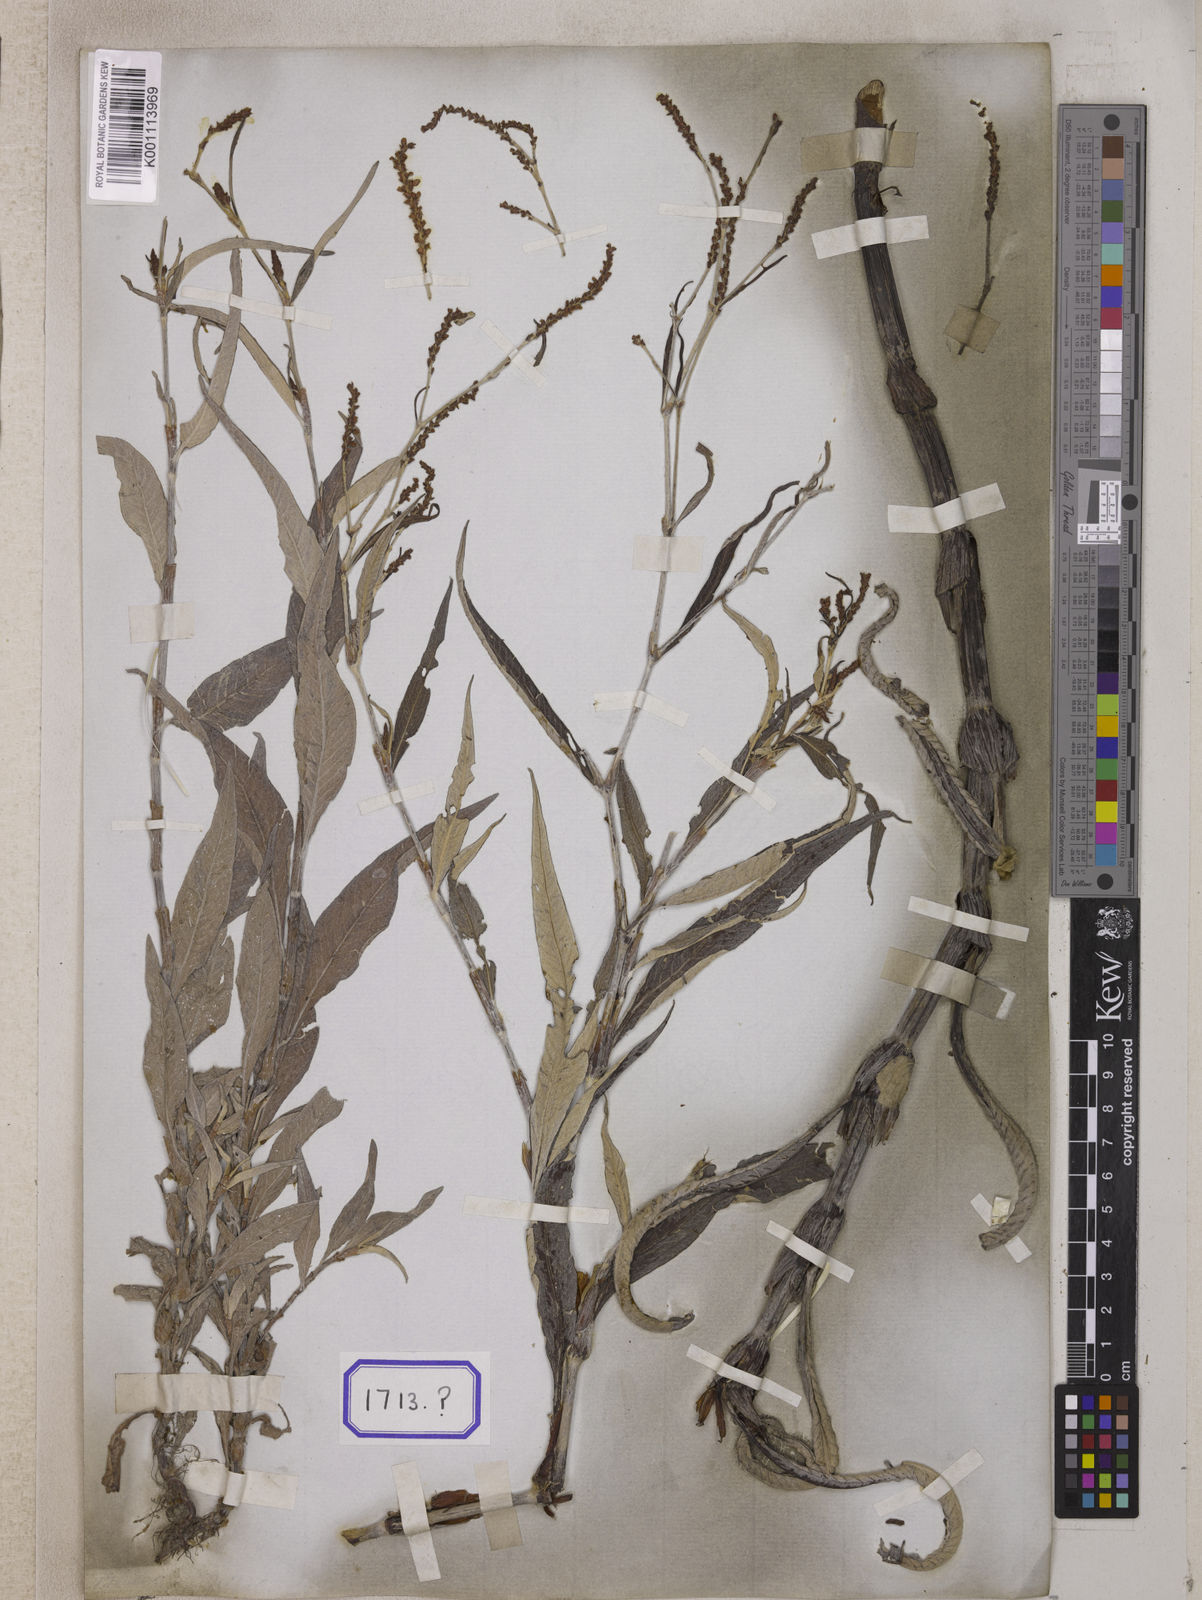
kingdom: Plantae
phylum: Tracheophyta
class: Magnoliopsida
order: Caryophyllales
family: Polygonaceae
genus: Polygonum
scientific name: Polygonum
